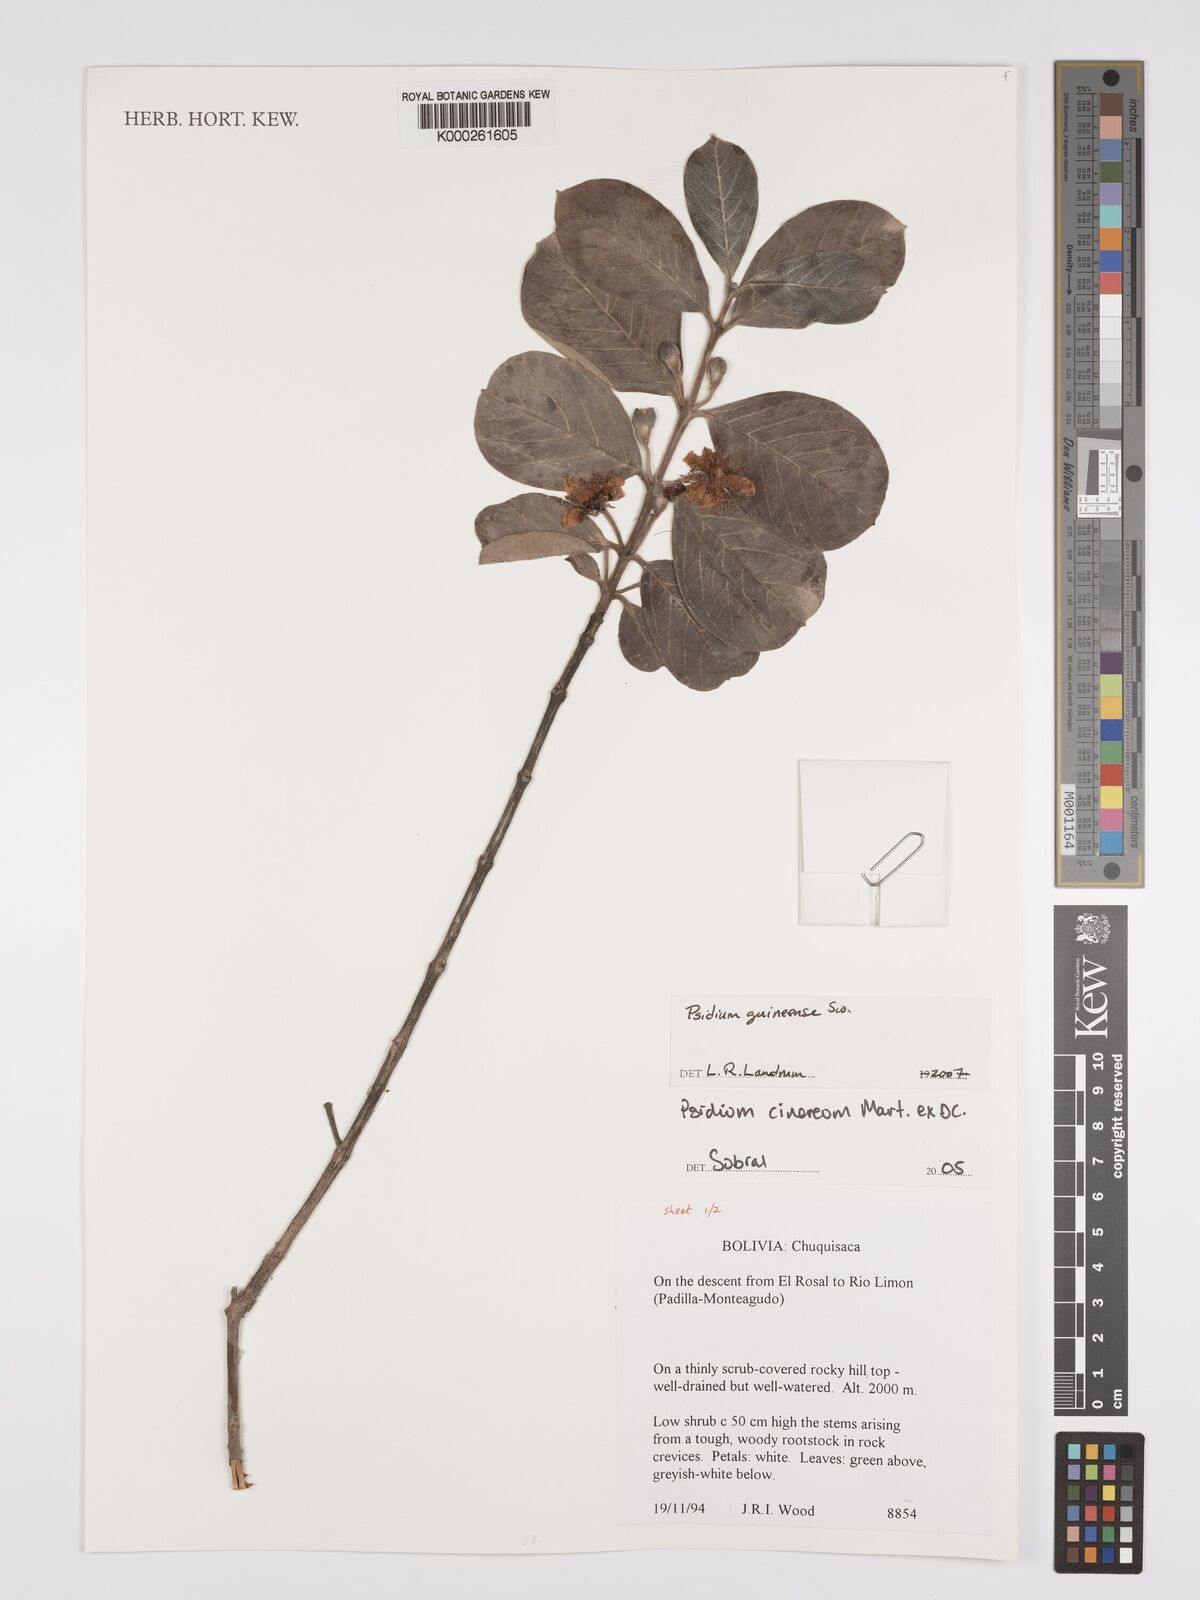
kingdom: Plantae
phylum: Tracheophyta
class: Magnoliopsida
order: Myrtales
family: Myrtaceae
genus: Psidium
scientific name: Psidium grandifolium
